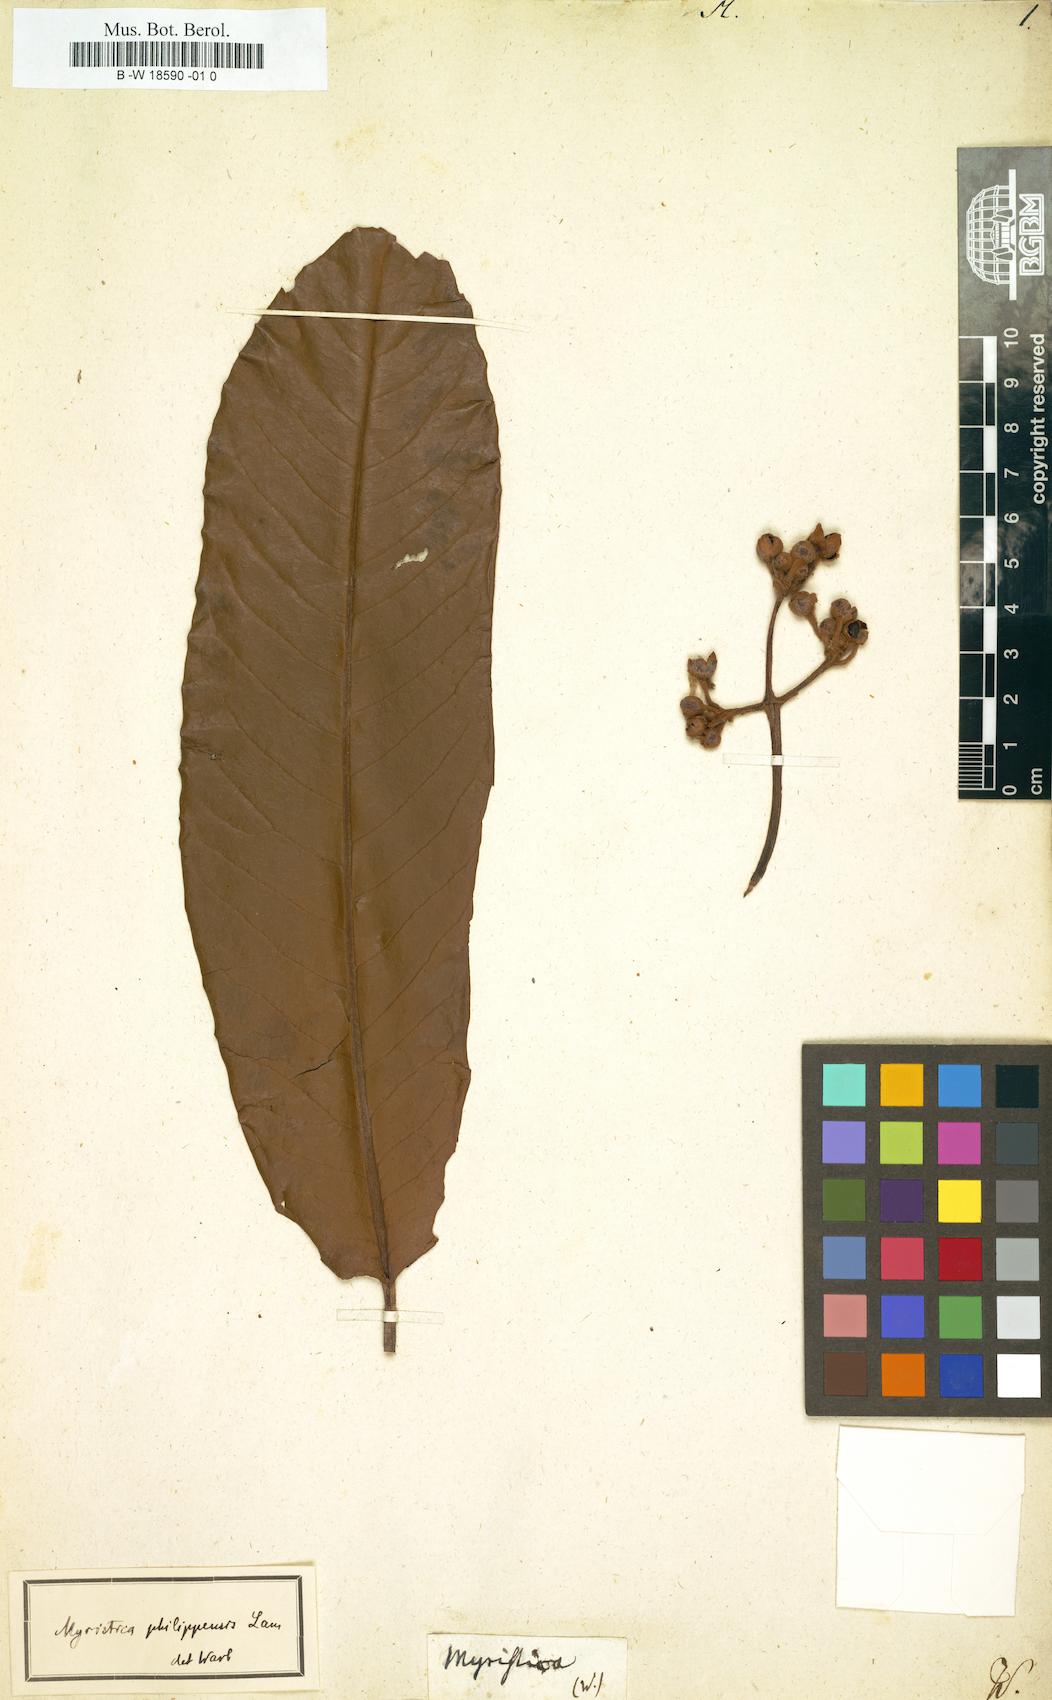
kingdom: Plantae
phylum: Tracheophyta
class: Magnoliopsida
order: Magnoliales
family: Myristicaceae
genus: Myristica
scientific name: Myristica philippensis
